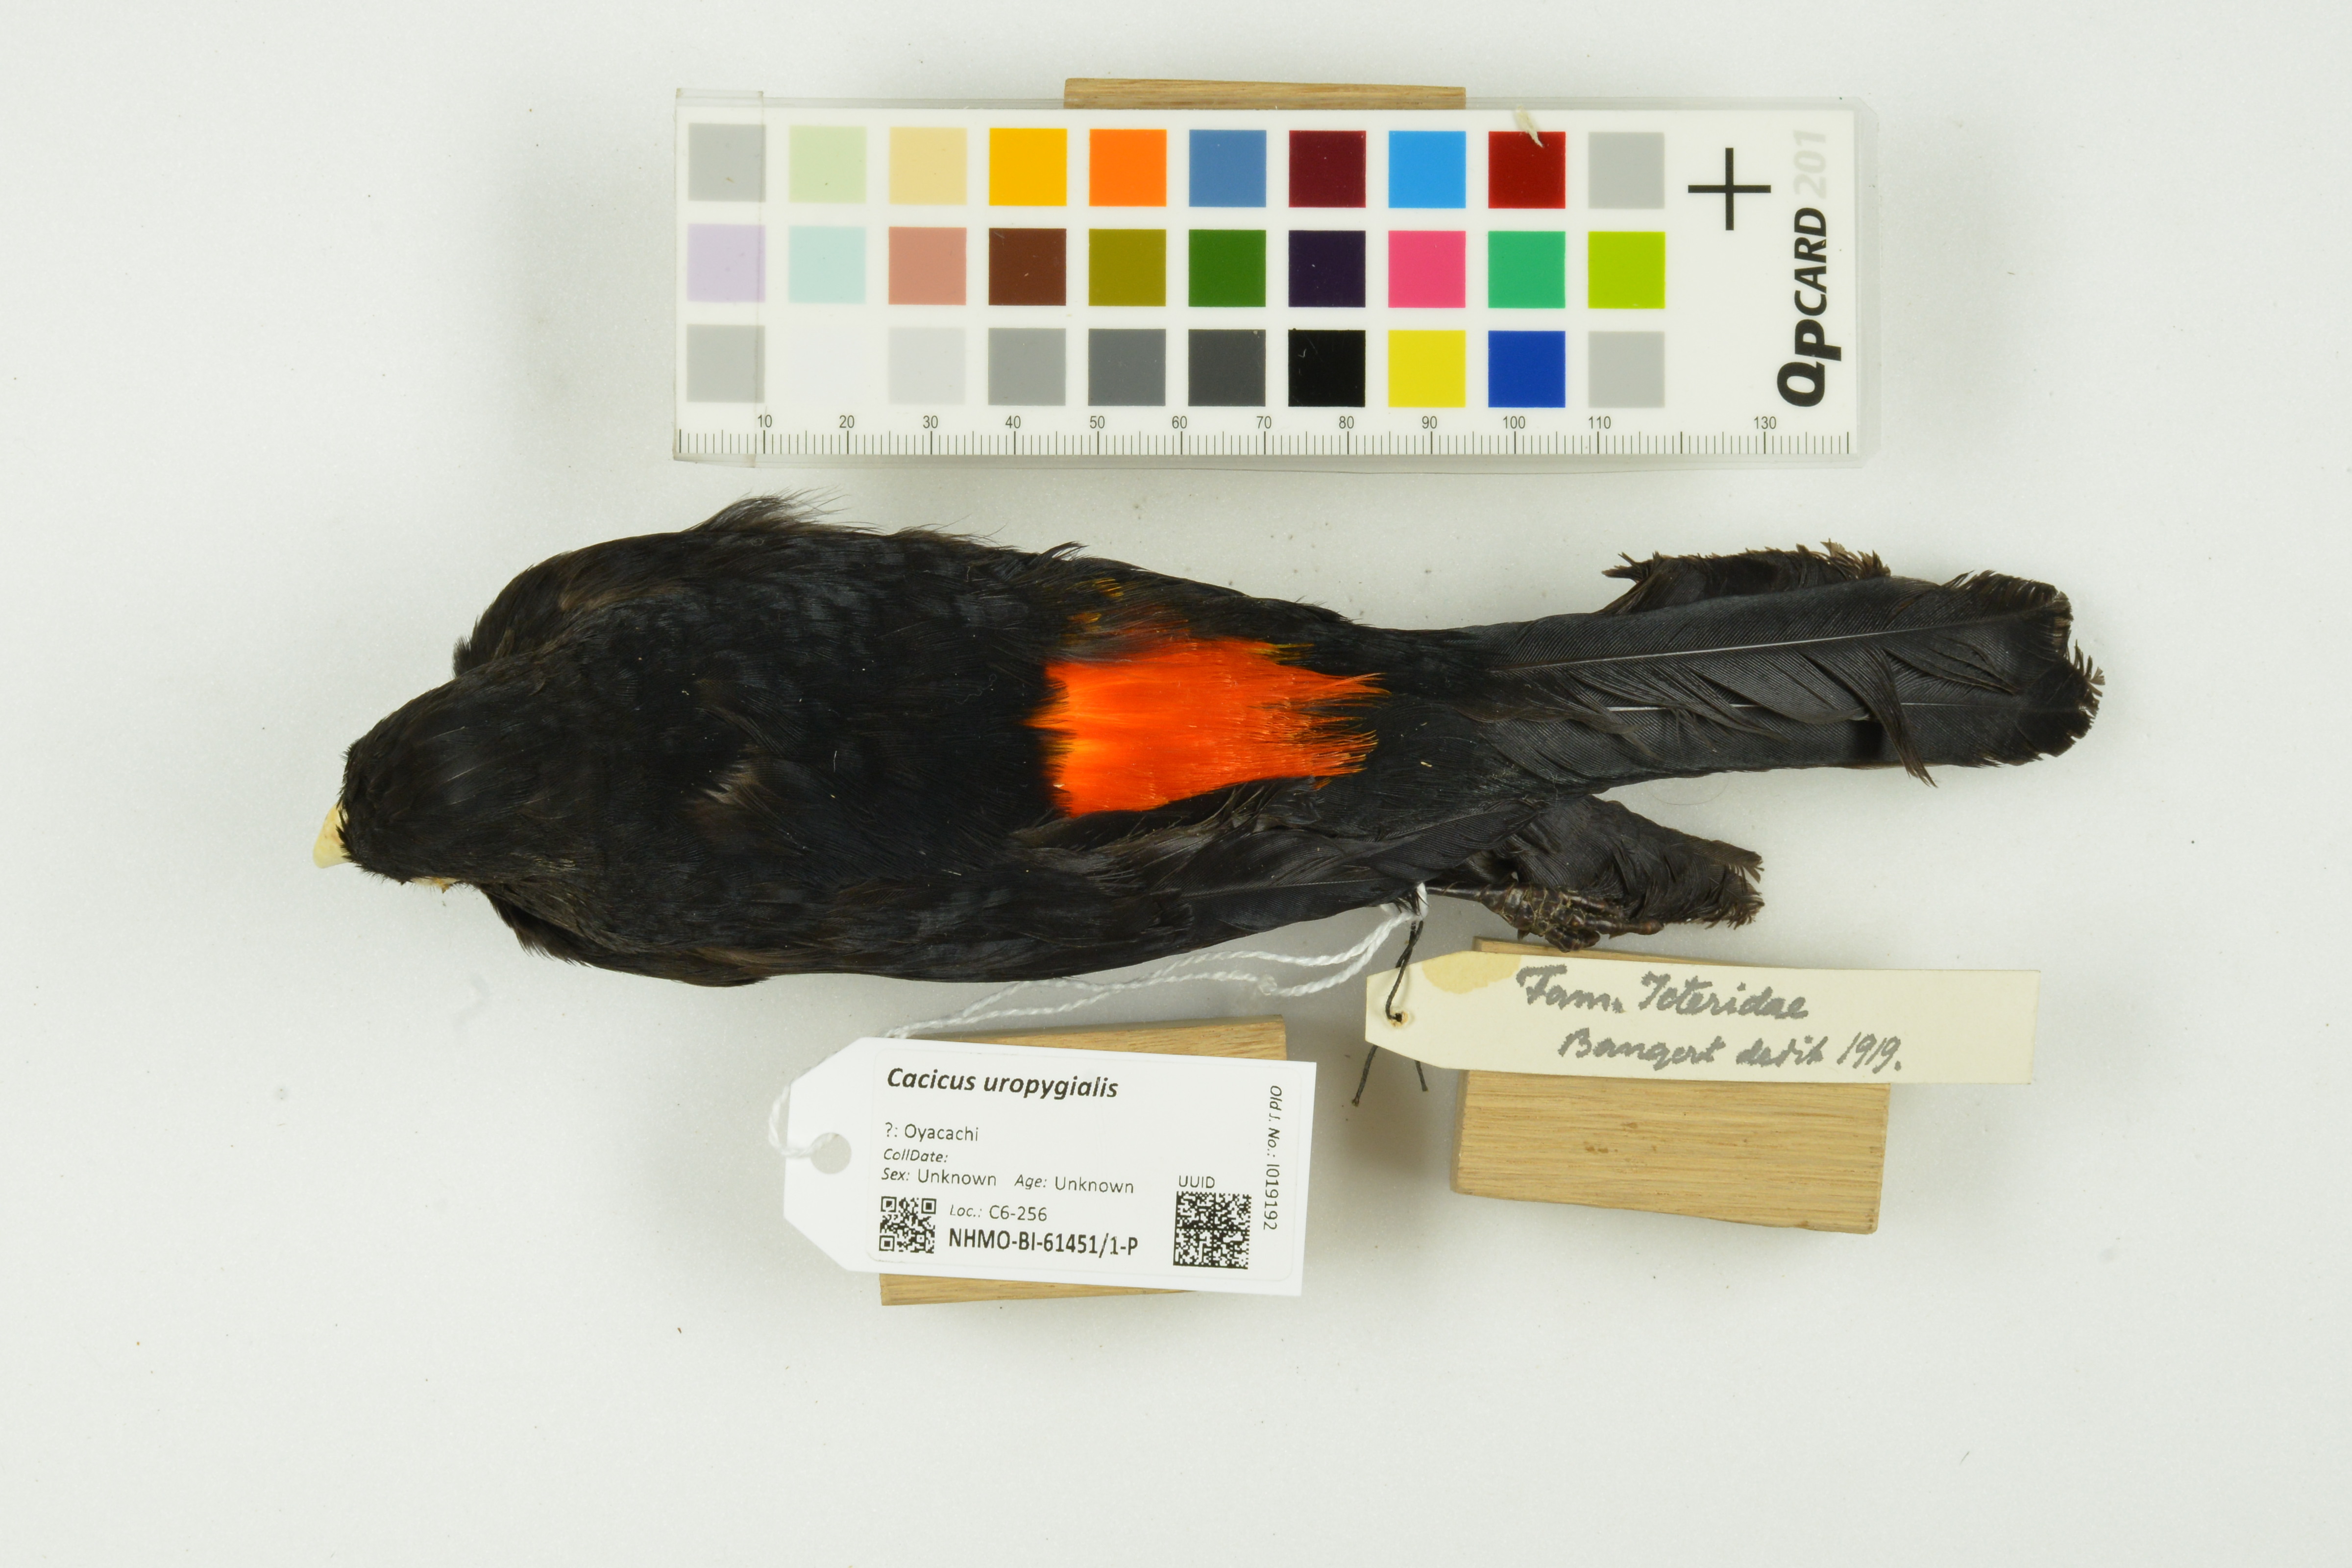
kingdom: Animalia
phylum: Chordata
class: Aves
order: Passeriformes
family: Icteridae
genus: Cacicus
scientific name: Cacicus uropygialis
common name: Scarlet-rumped cacique
